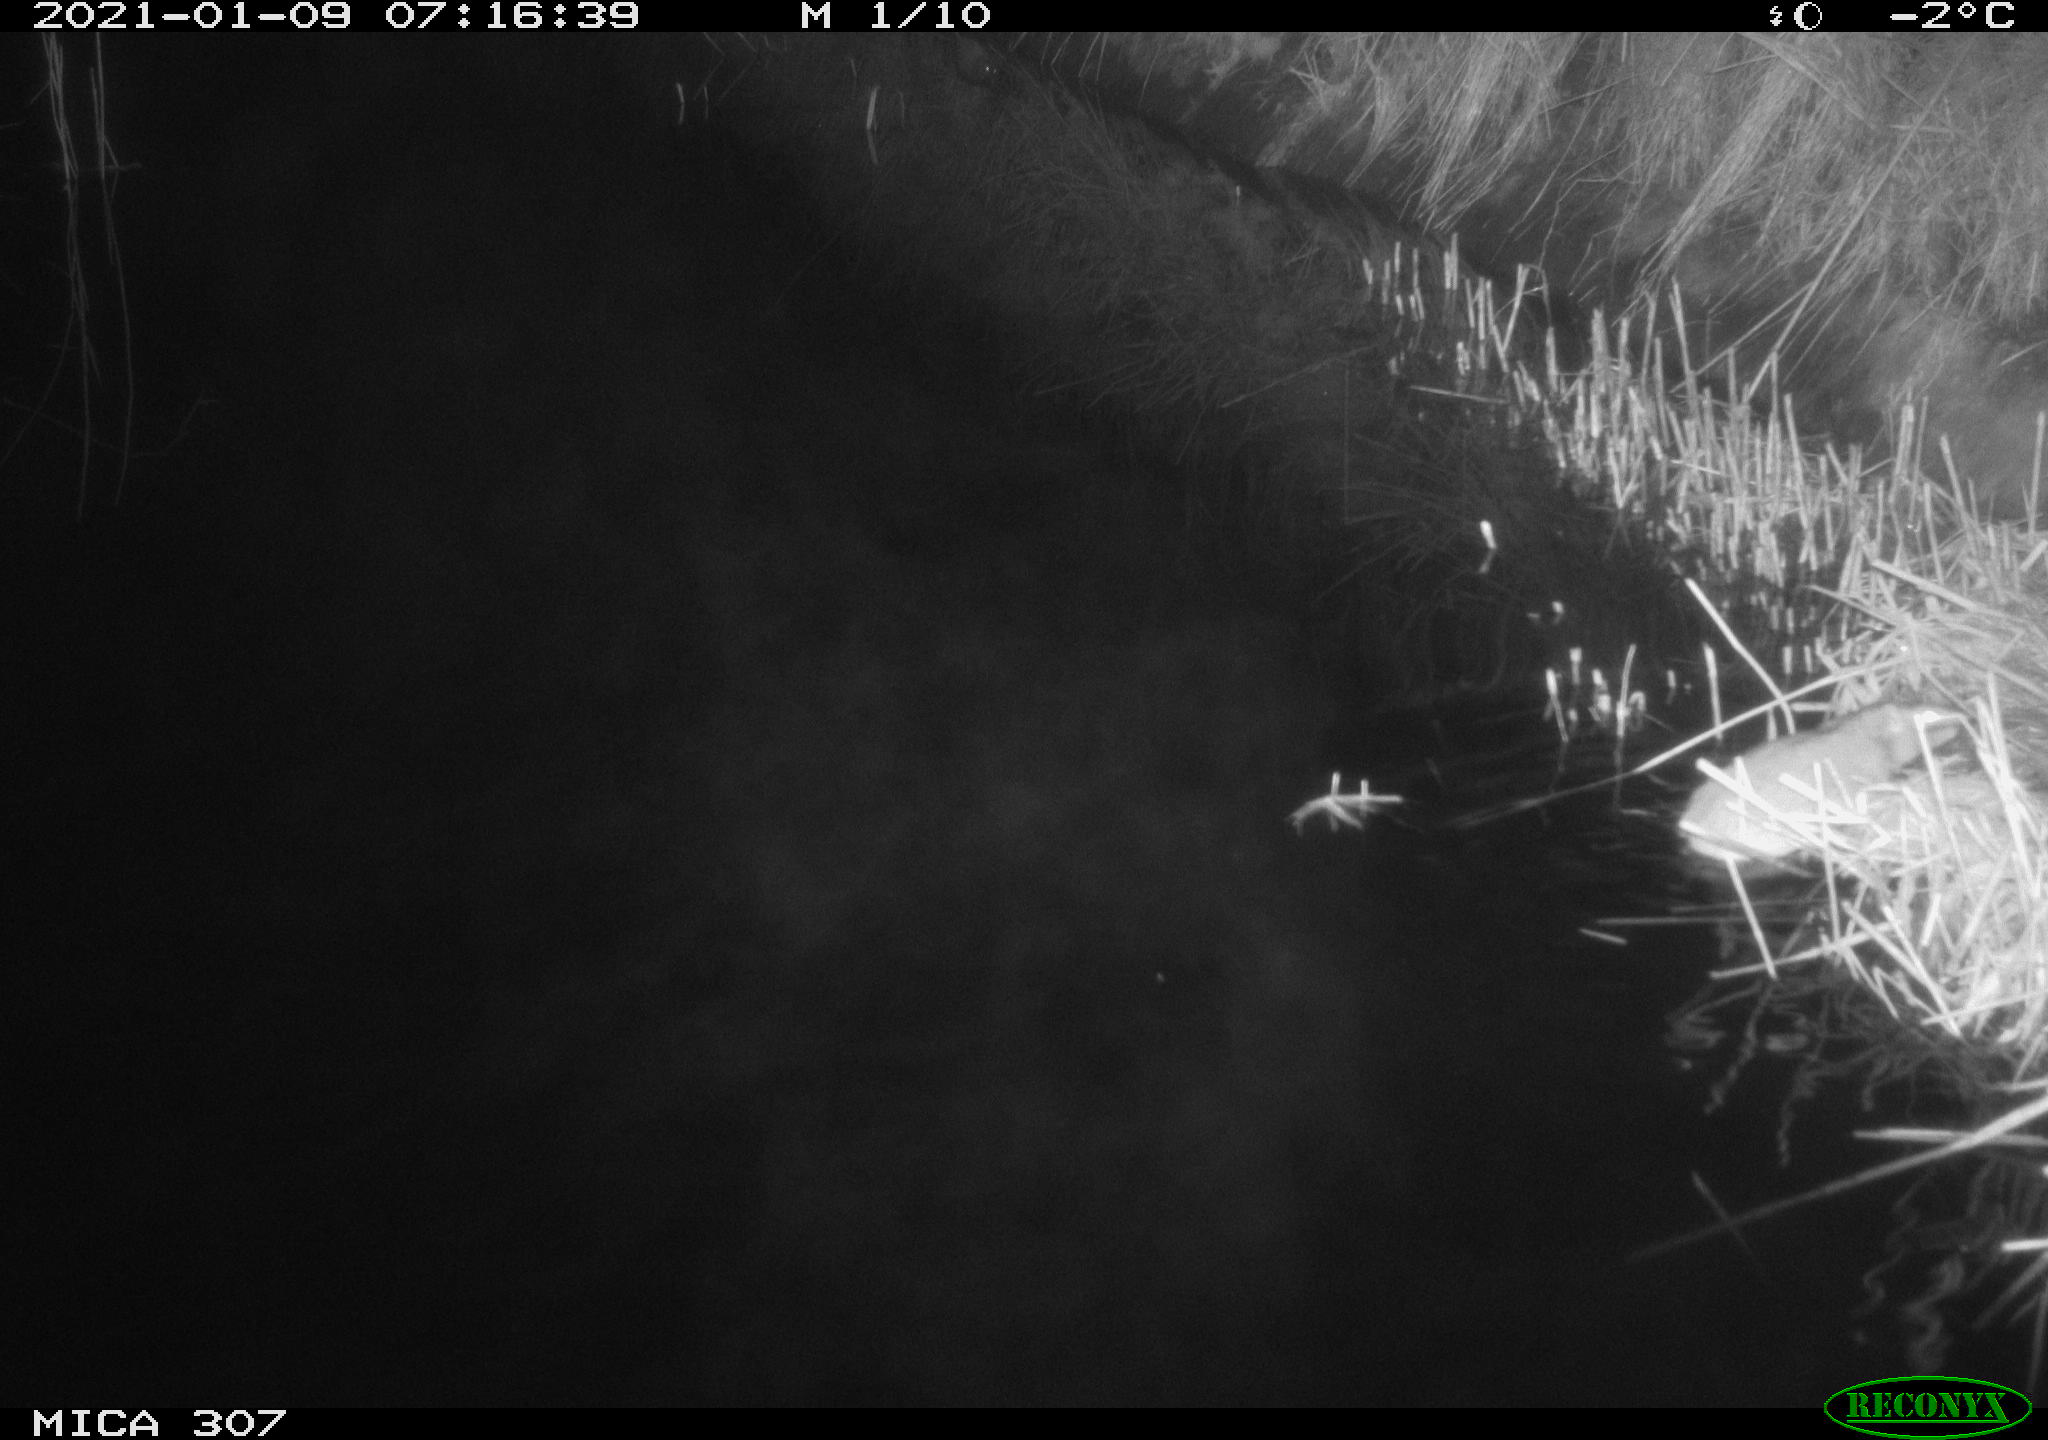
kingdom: Animalia
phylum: Chordata
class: Mammalia
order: Rodentia
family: Muridae
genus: Rattus
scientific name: Rattus norvegicus
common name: Brown rat
